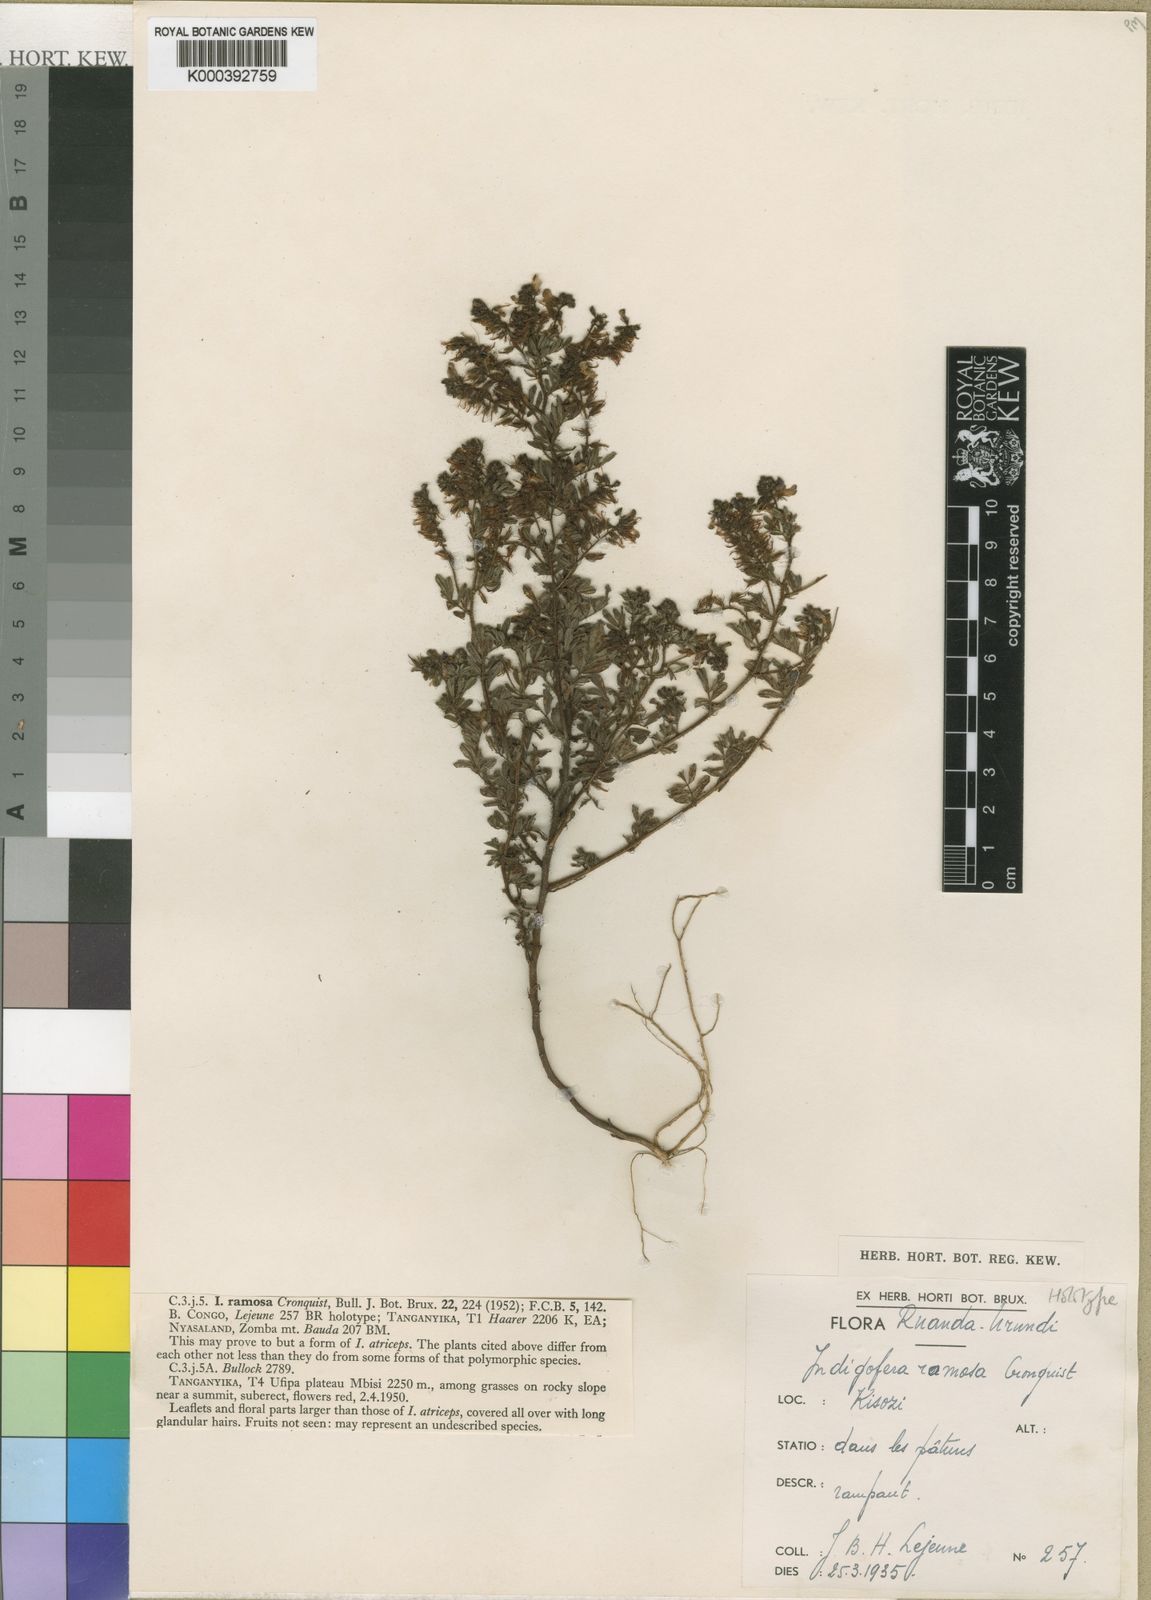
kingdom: Plantae
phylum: Tracheophyta
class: Magnoliopsida
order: Fabales
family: Fabaceae
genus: Indigofera
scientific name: Indigofera atriceps
